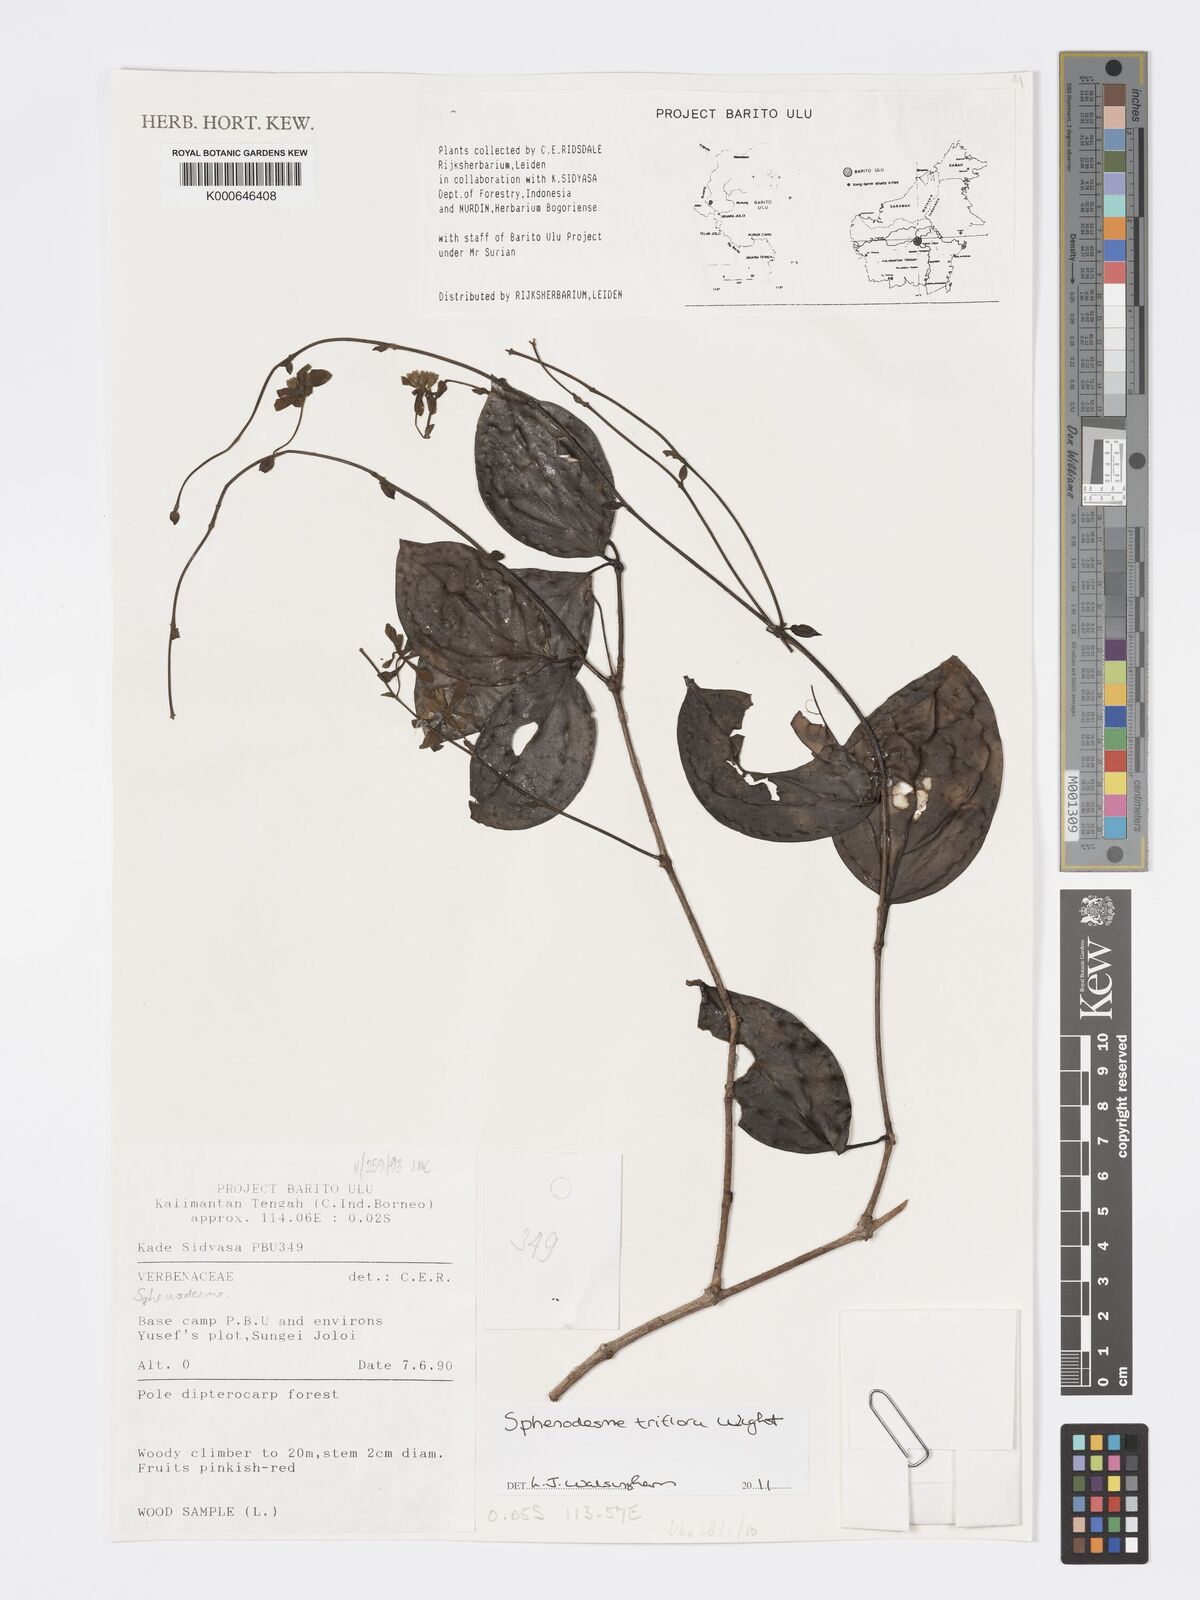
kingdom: Plantae
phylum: Tracheophyta
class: Magnoliopsida
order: Lamiales
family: Lamiaceae
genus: Sphenodesme
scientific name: Sphenodesme triflora
